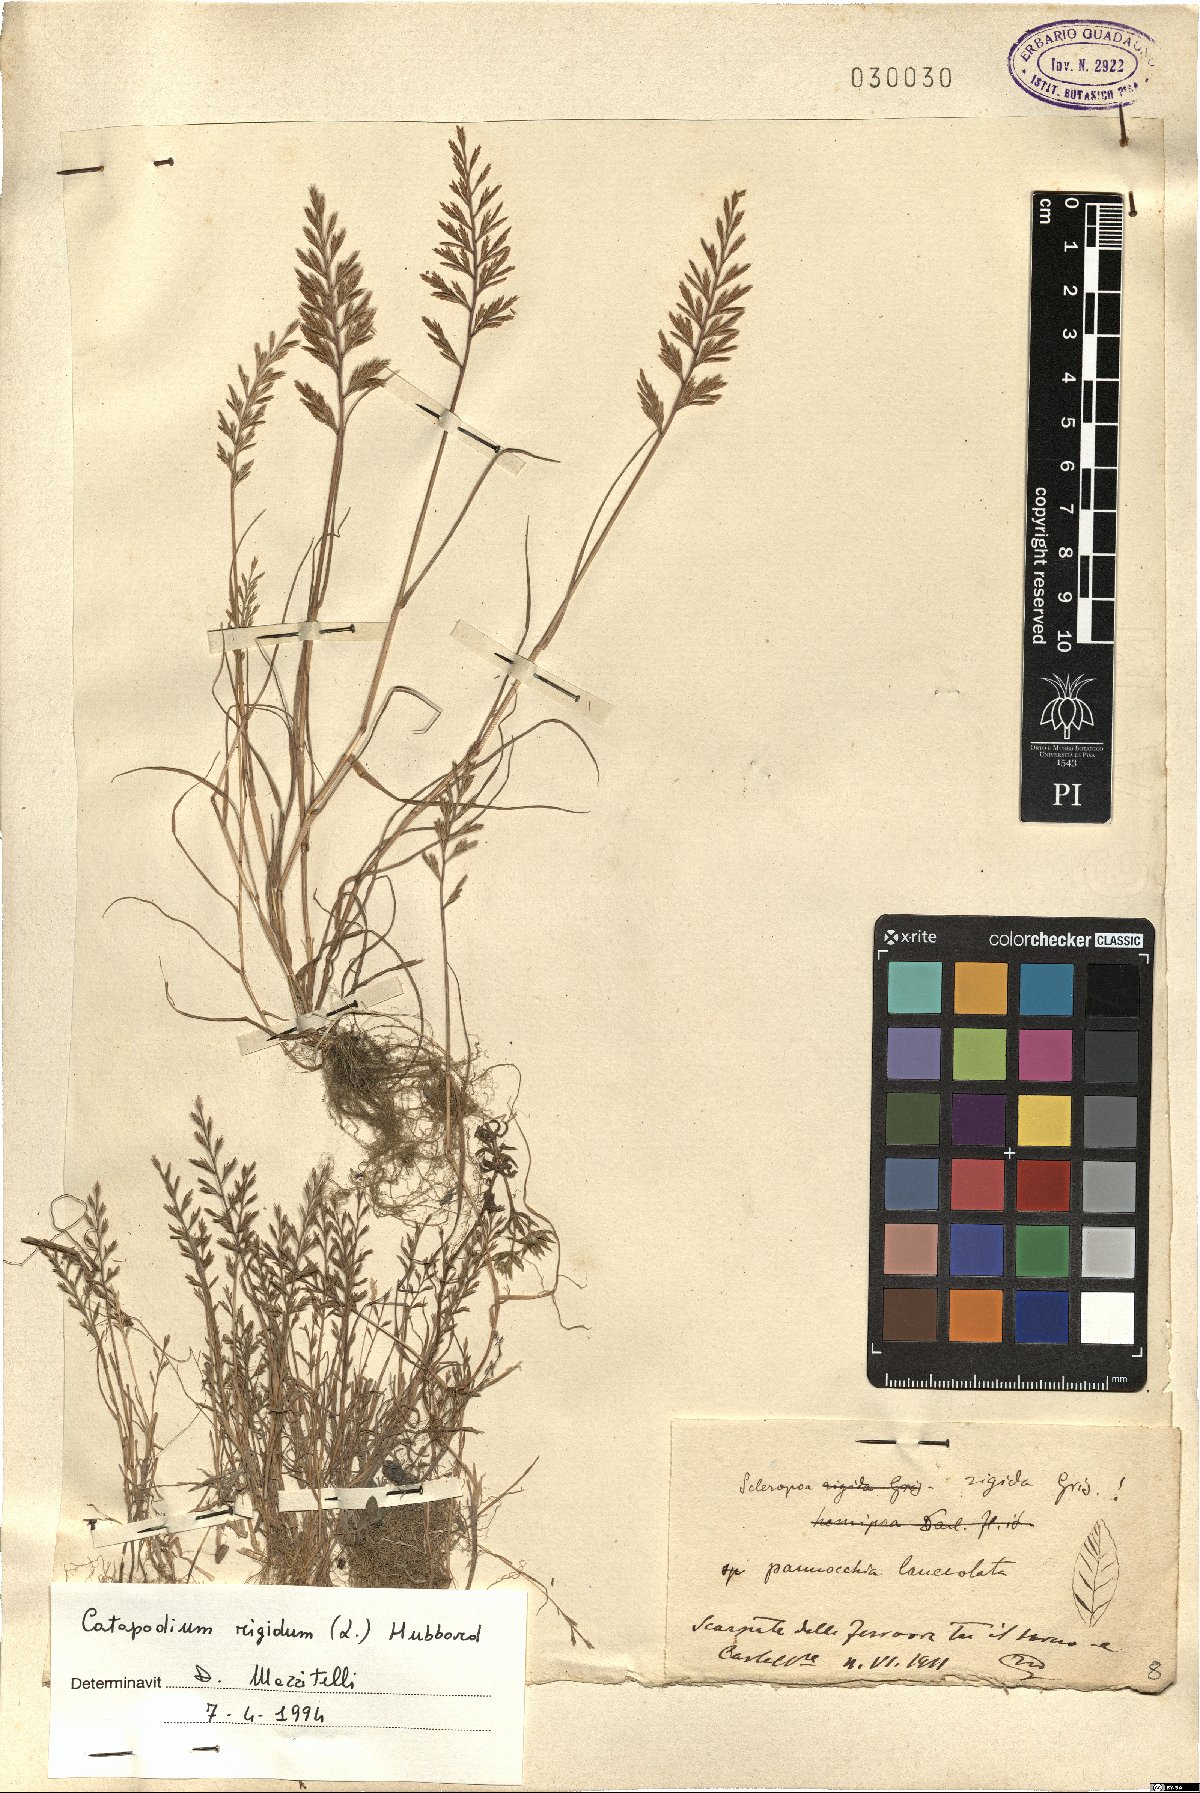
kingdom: Plantae
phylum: Tracheophyta
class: Liliopsida
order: Poales
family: Poaceae
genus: Catapodium
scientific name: Catapodium rigidum
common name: Fern-grass
